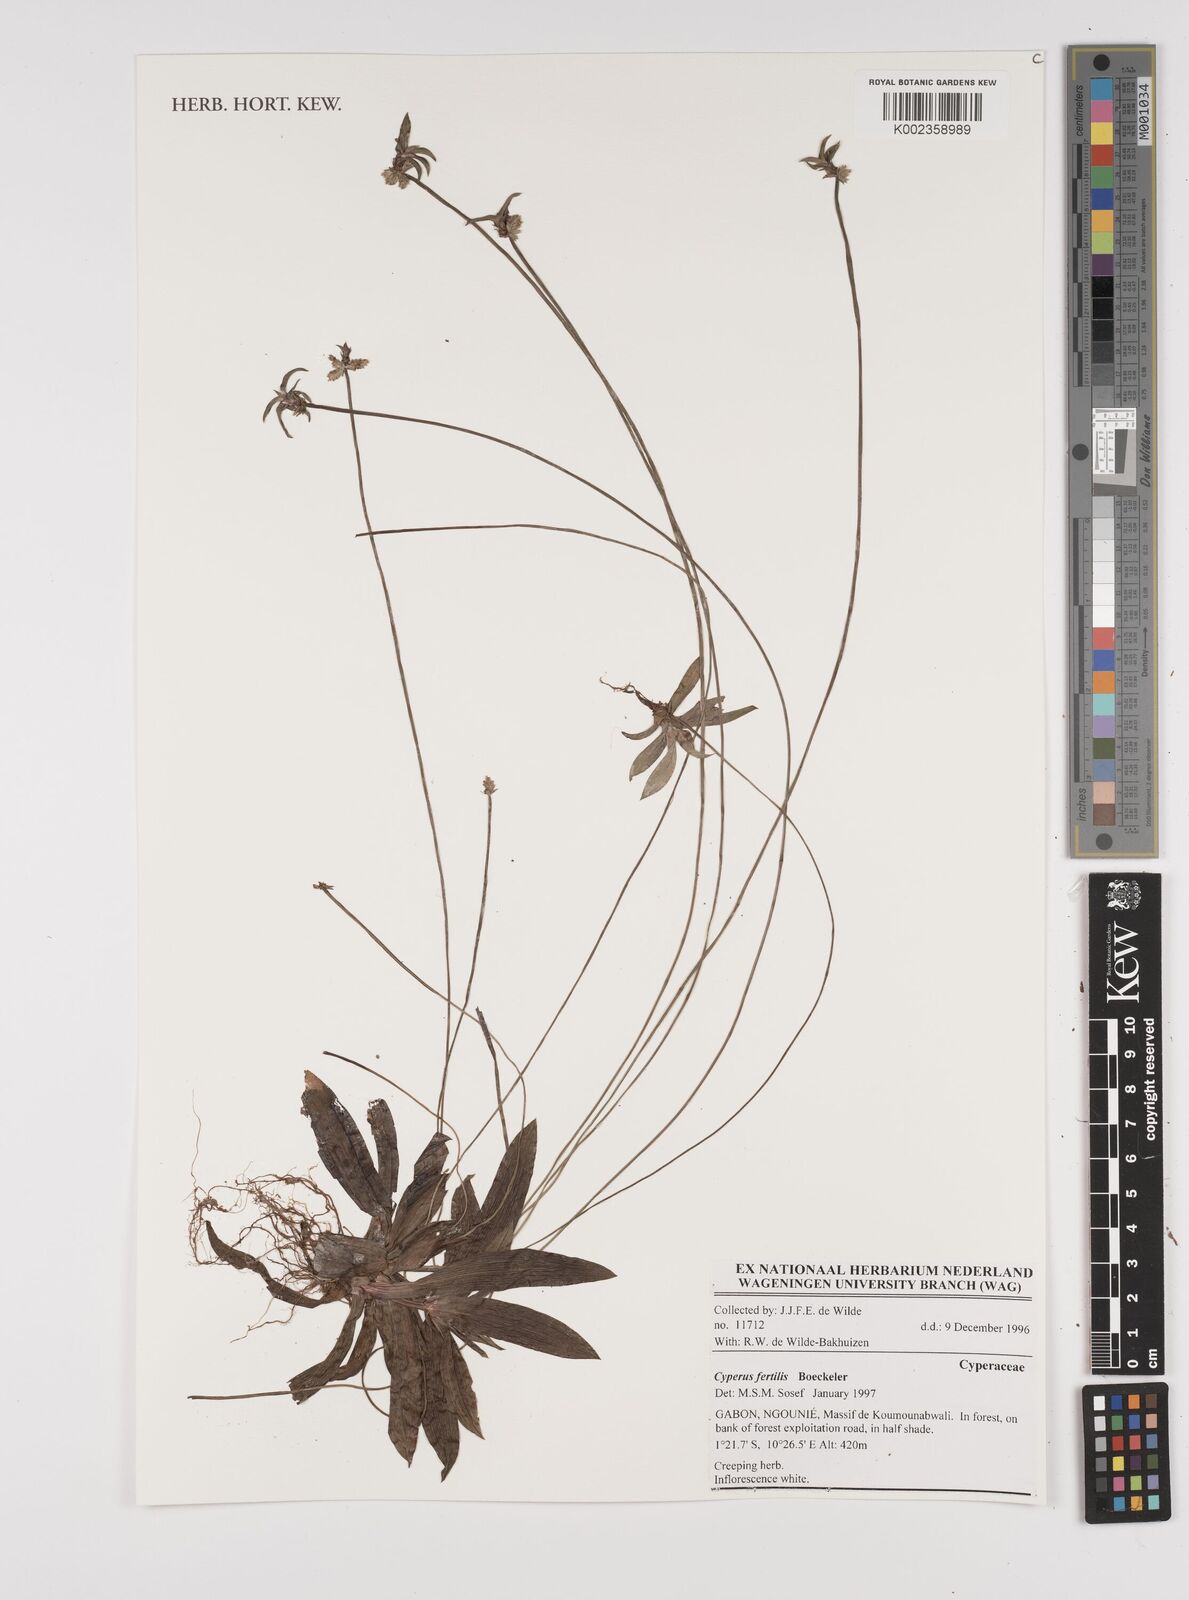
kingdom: Plantae
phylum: Tracheophyta
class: Liliopsida
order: Poales
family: Cyperaceae
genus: Cyperus
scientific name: Cyperus fertilis
